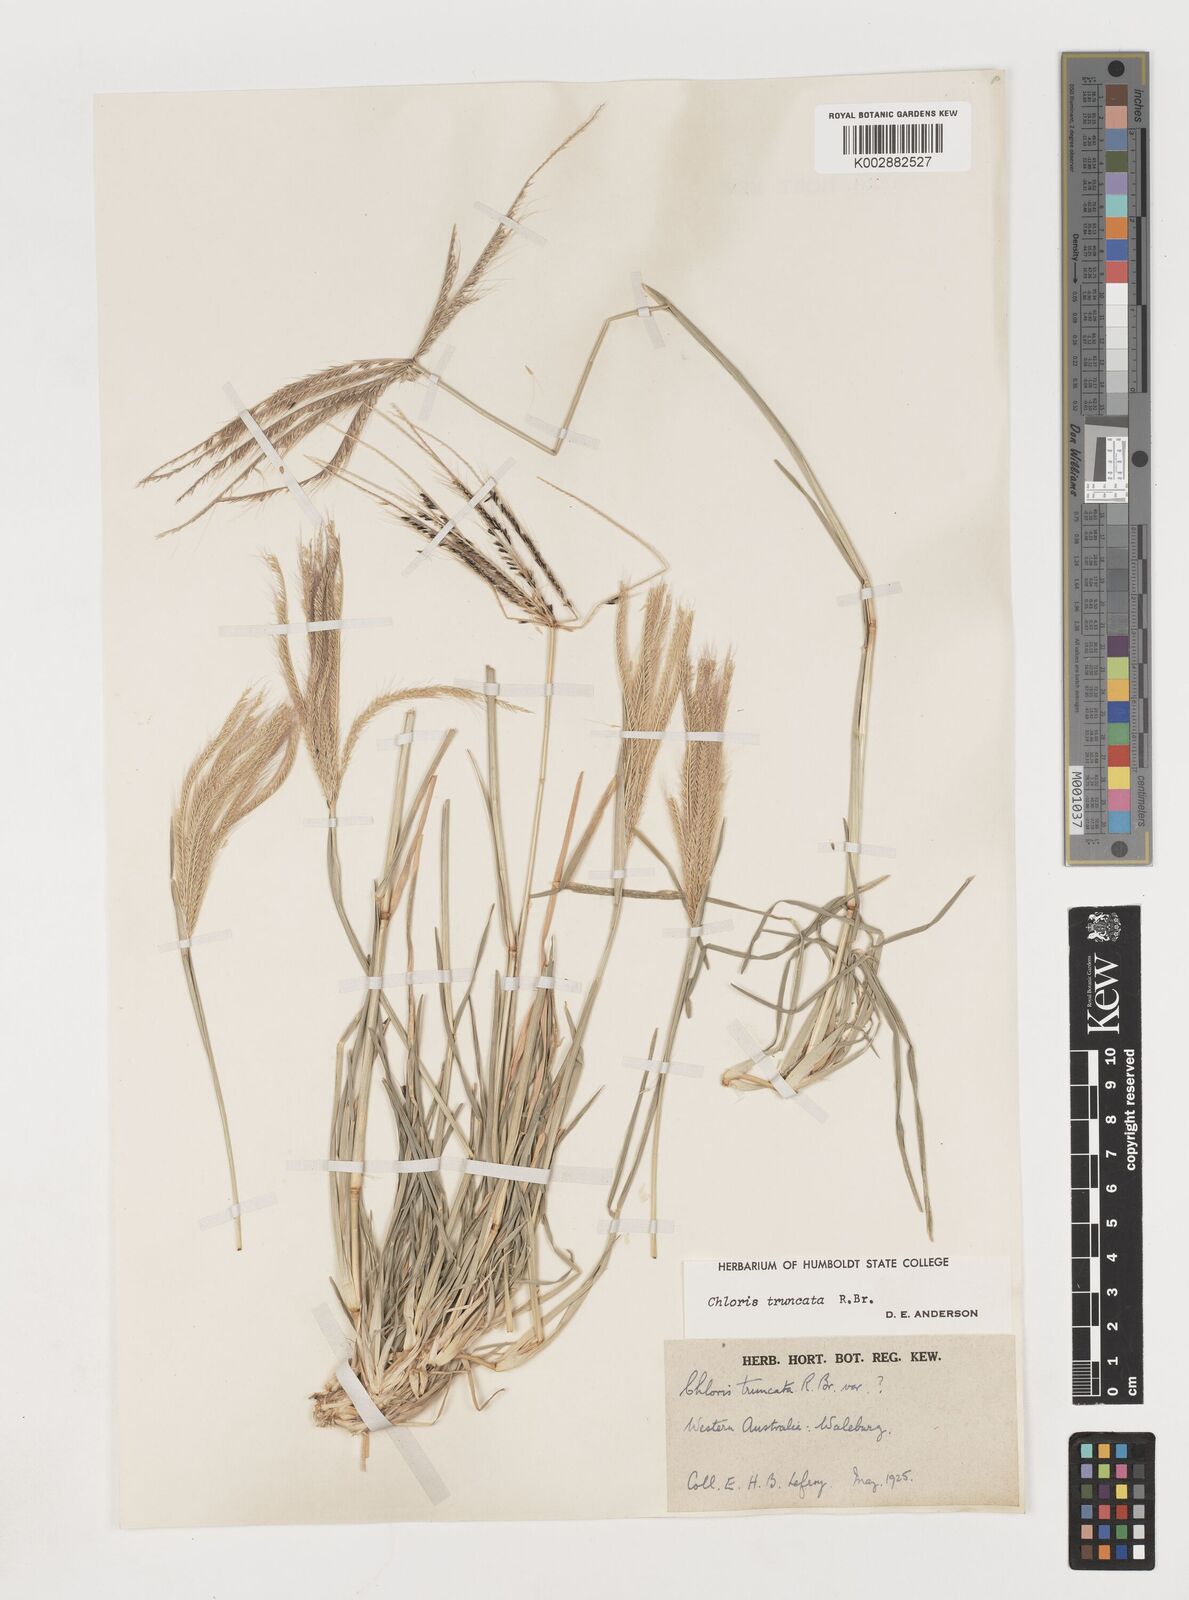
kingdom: Plantae
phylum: Tracheophyta
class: Liliopsida
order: Poales
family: Poaceae
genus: Chloris
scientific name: Chloris truncata
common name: Windmill-grass
